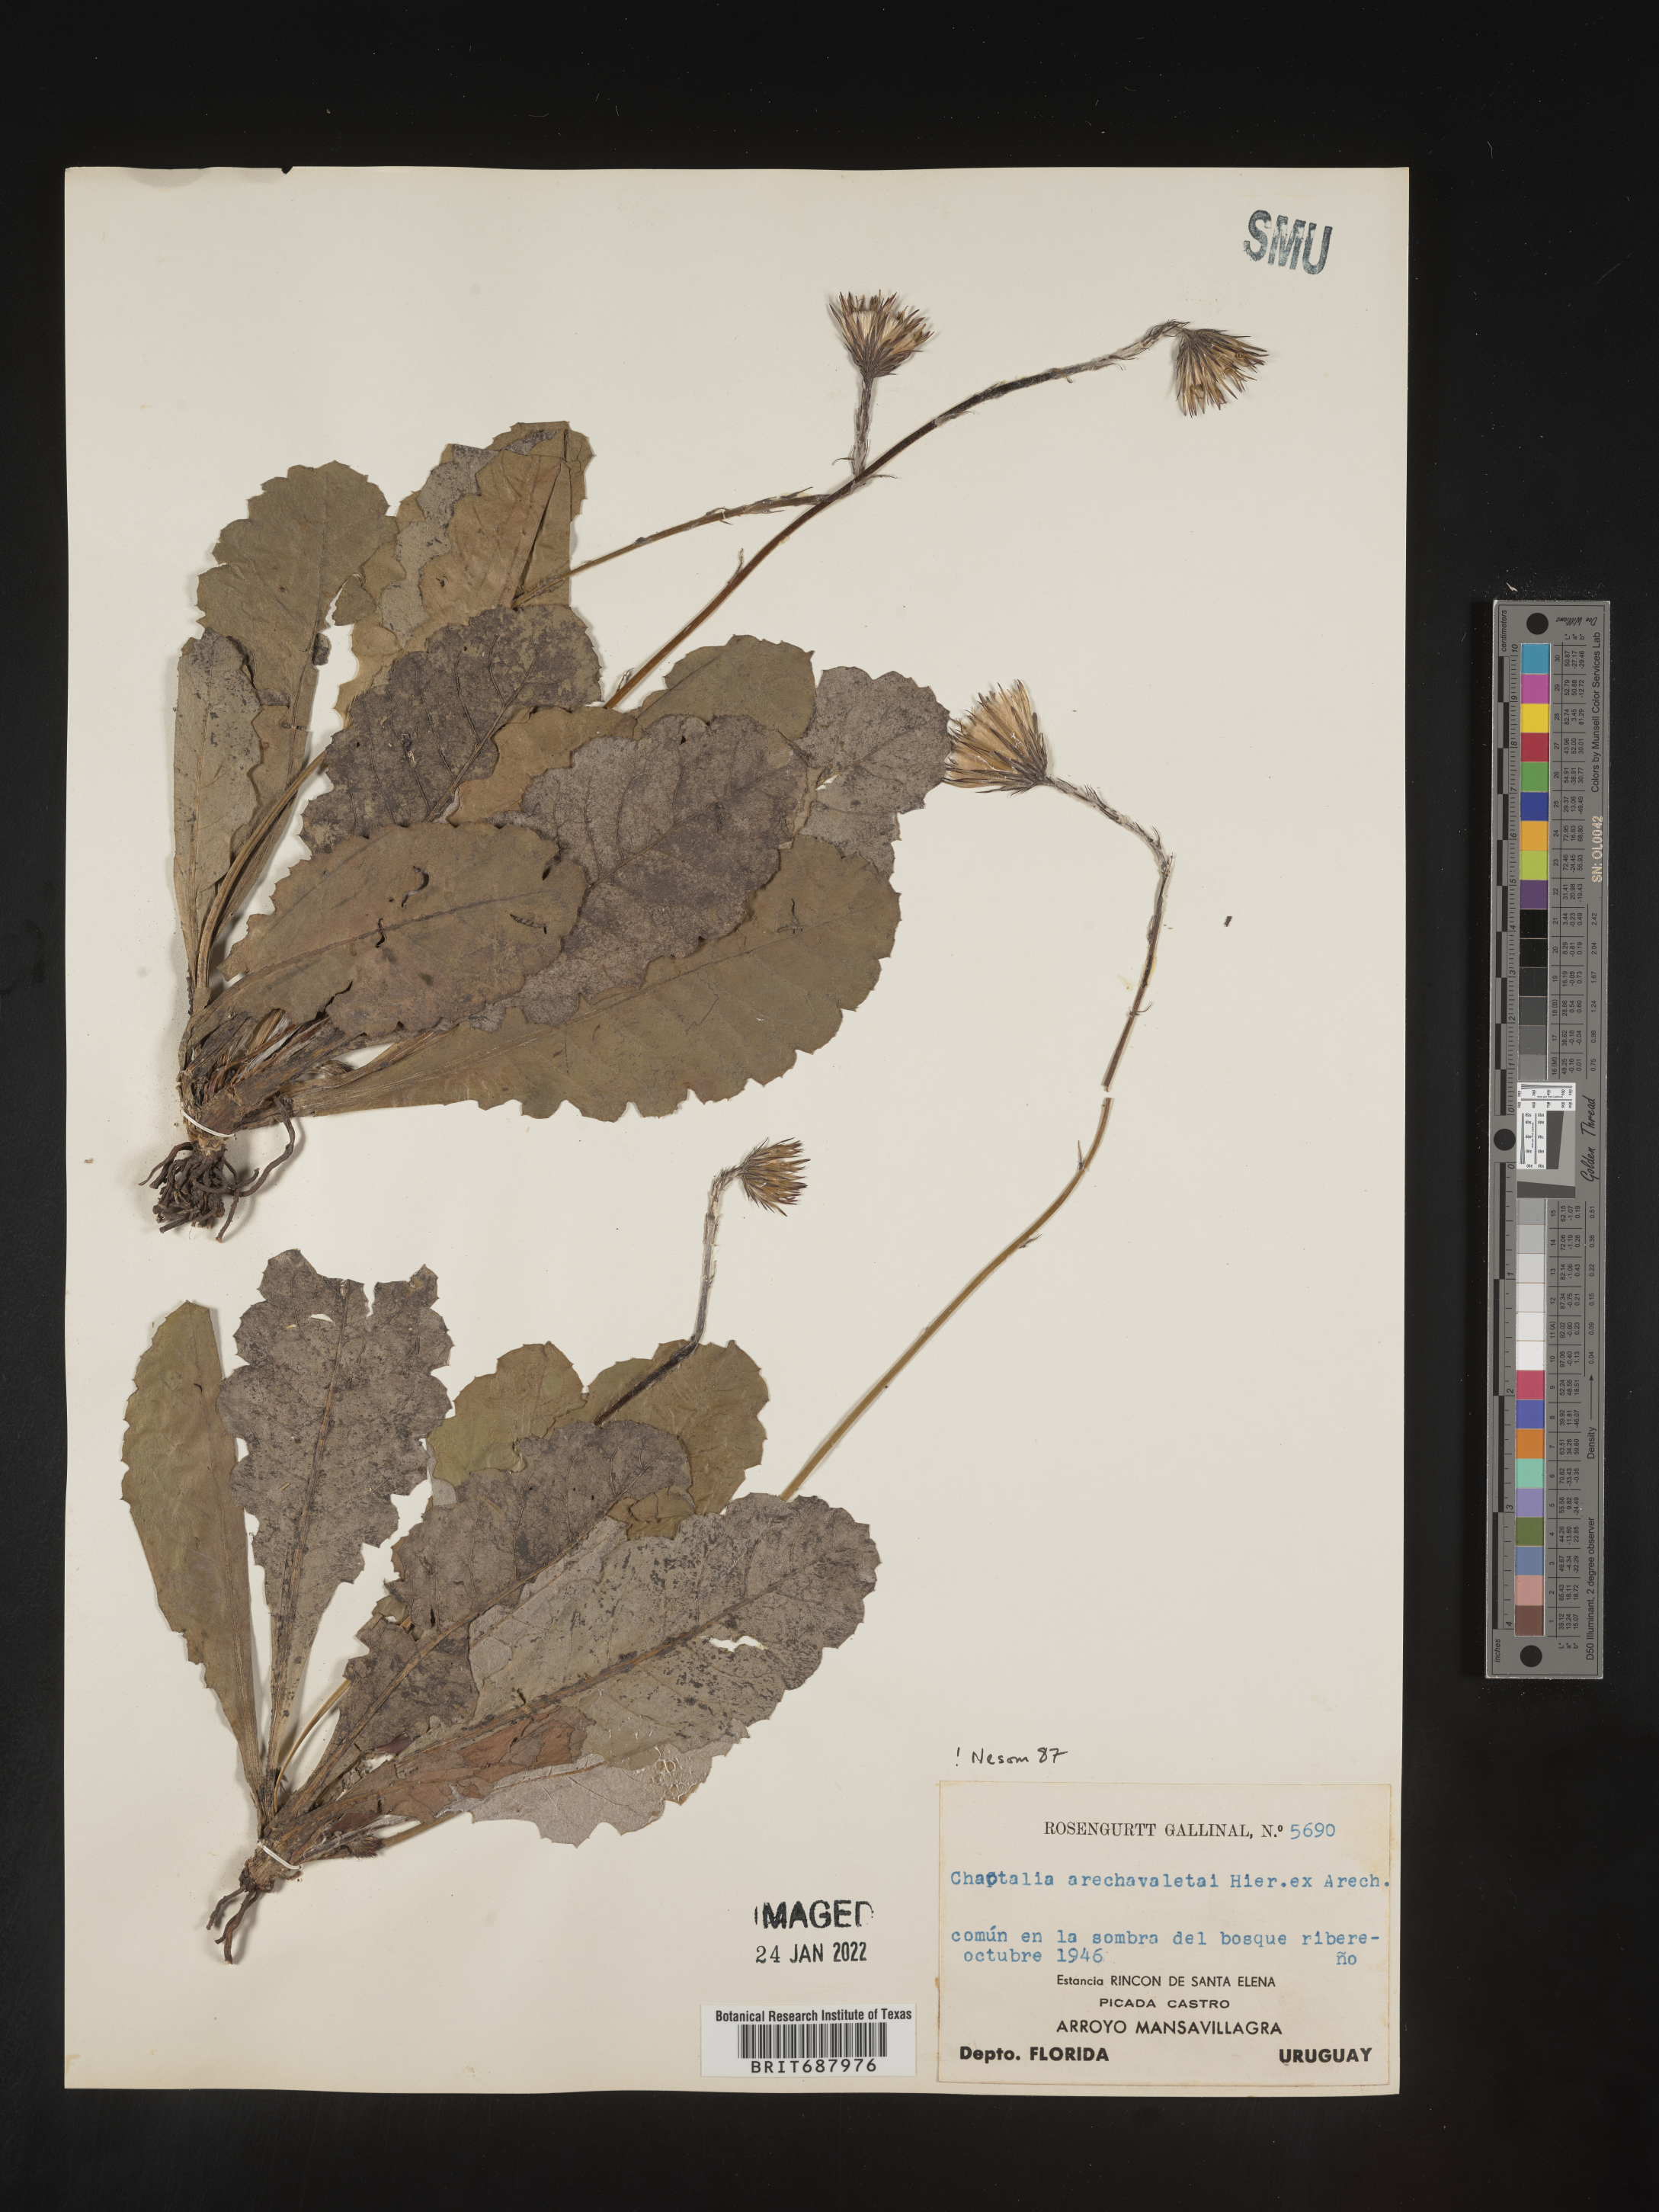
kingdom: Plantae
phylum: Tracheophyta
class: Magnoliopsida
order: Asterales
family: Asteraceae
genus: Chaptalia
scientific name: Chaptalia
